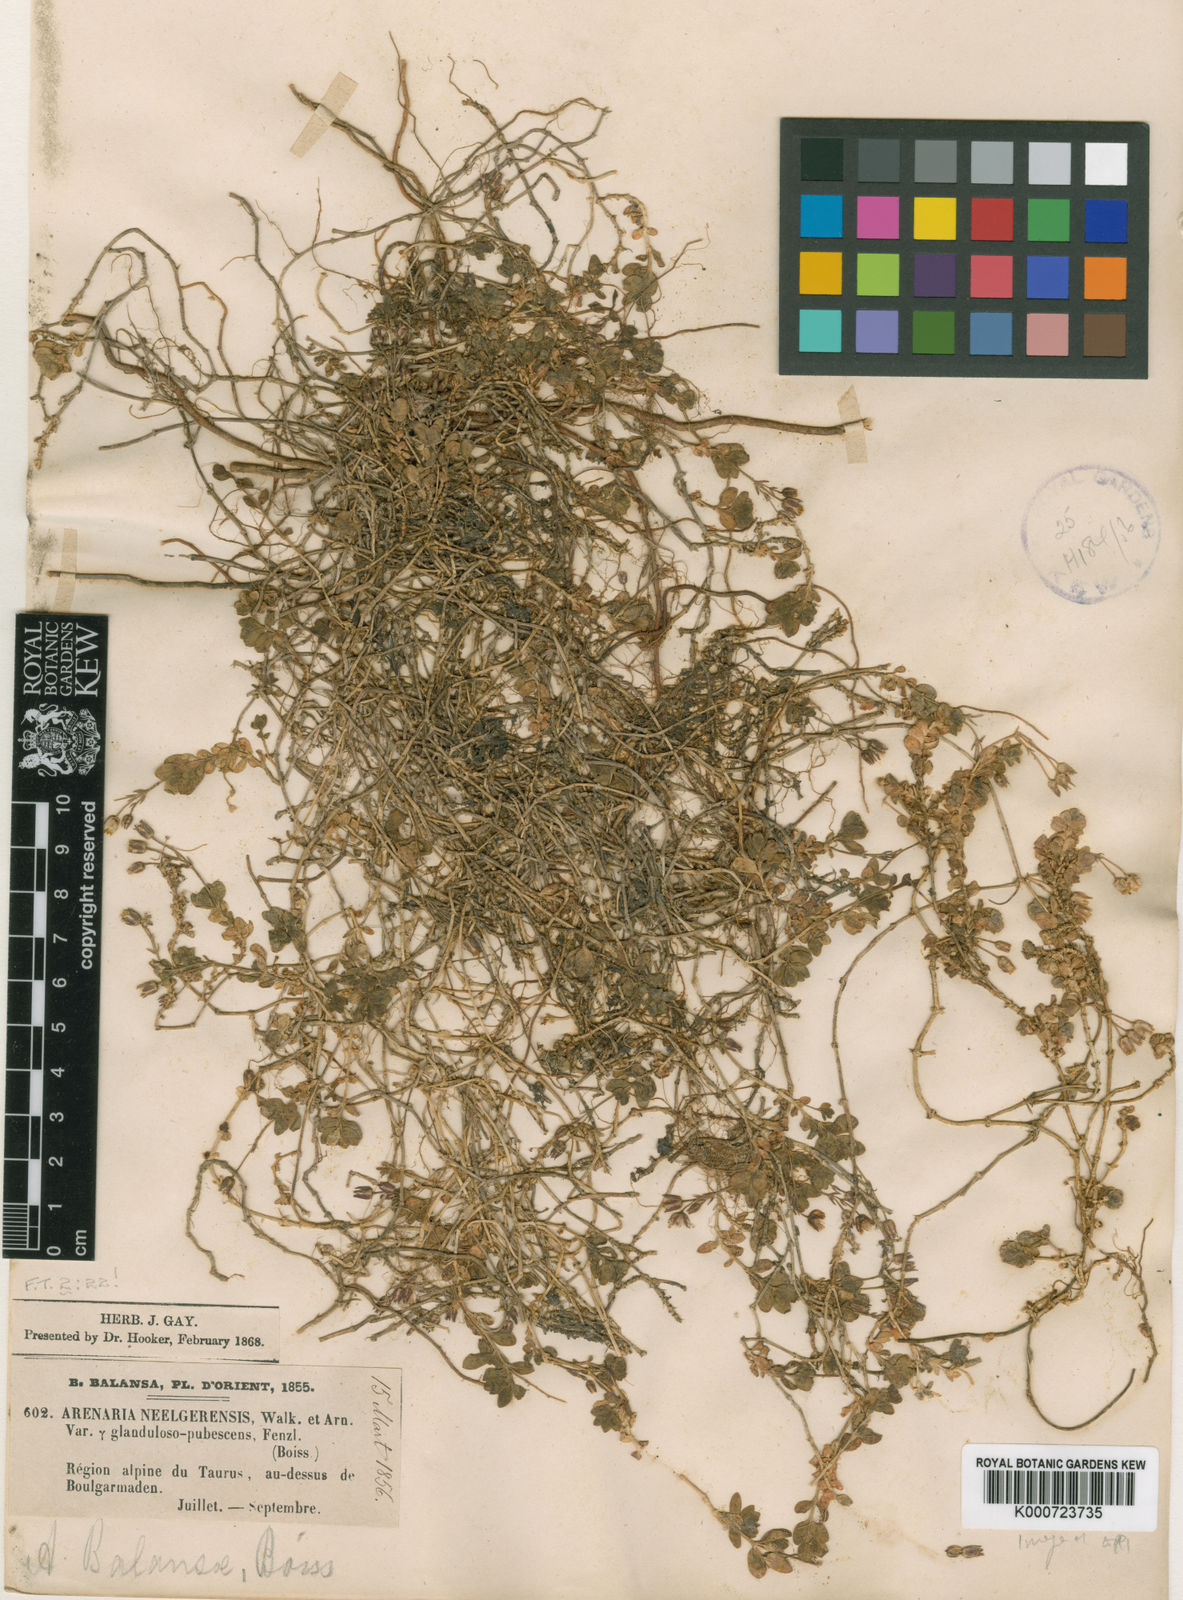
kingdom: Plantae
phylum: Tracheophyta
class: Magnoliopsida
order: Caryophyllales
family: Caryophyllaceae
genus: Arenaria
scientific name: Arenaria balansae
